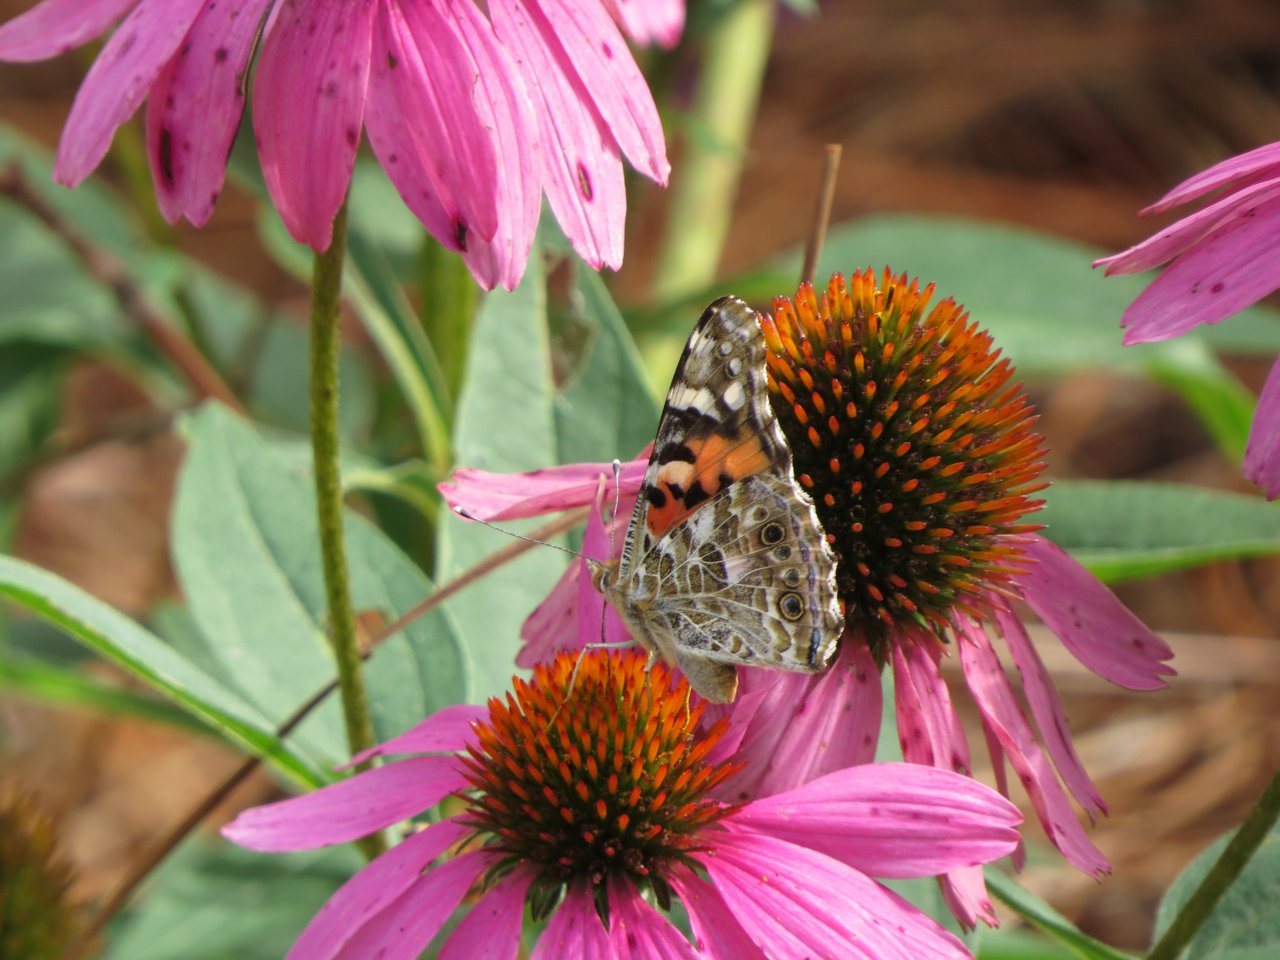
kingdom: Animalia
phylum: Arthropoda
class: Insecta
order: Lepidoptera
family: Nymphalidae
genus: Vanessa
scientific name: Vanessa cardui
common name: Painted Lady
